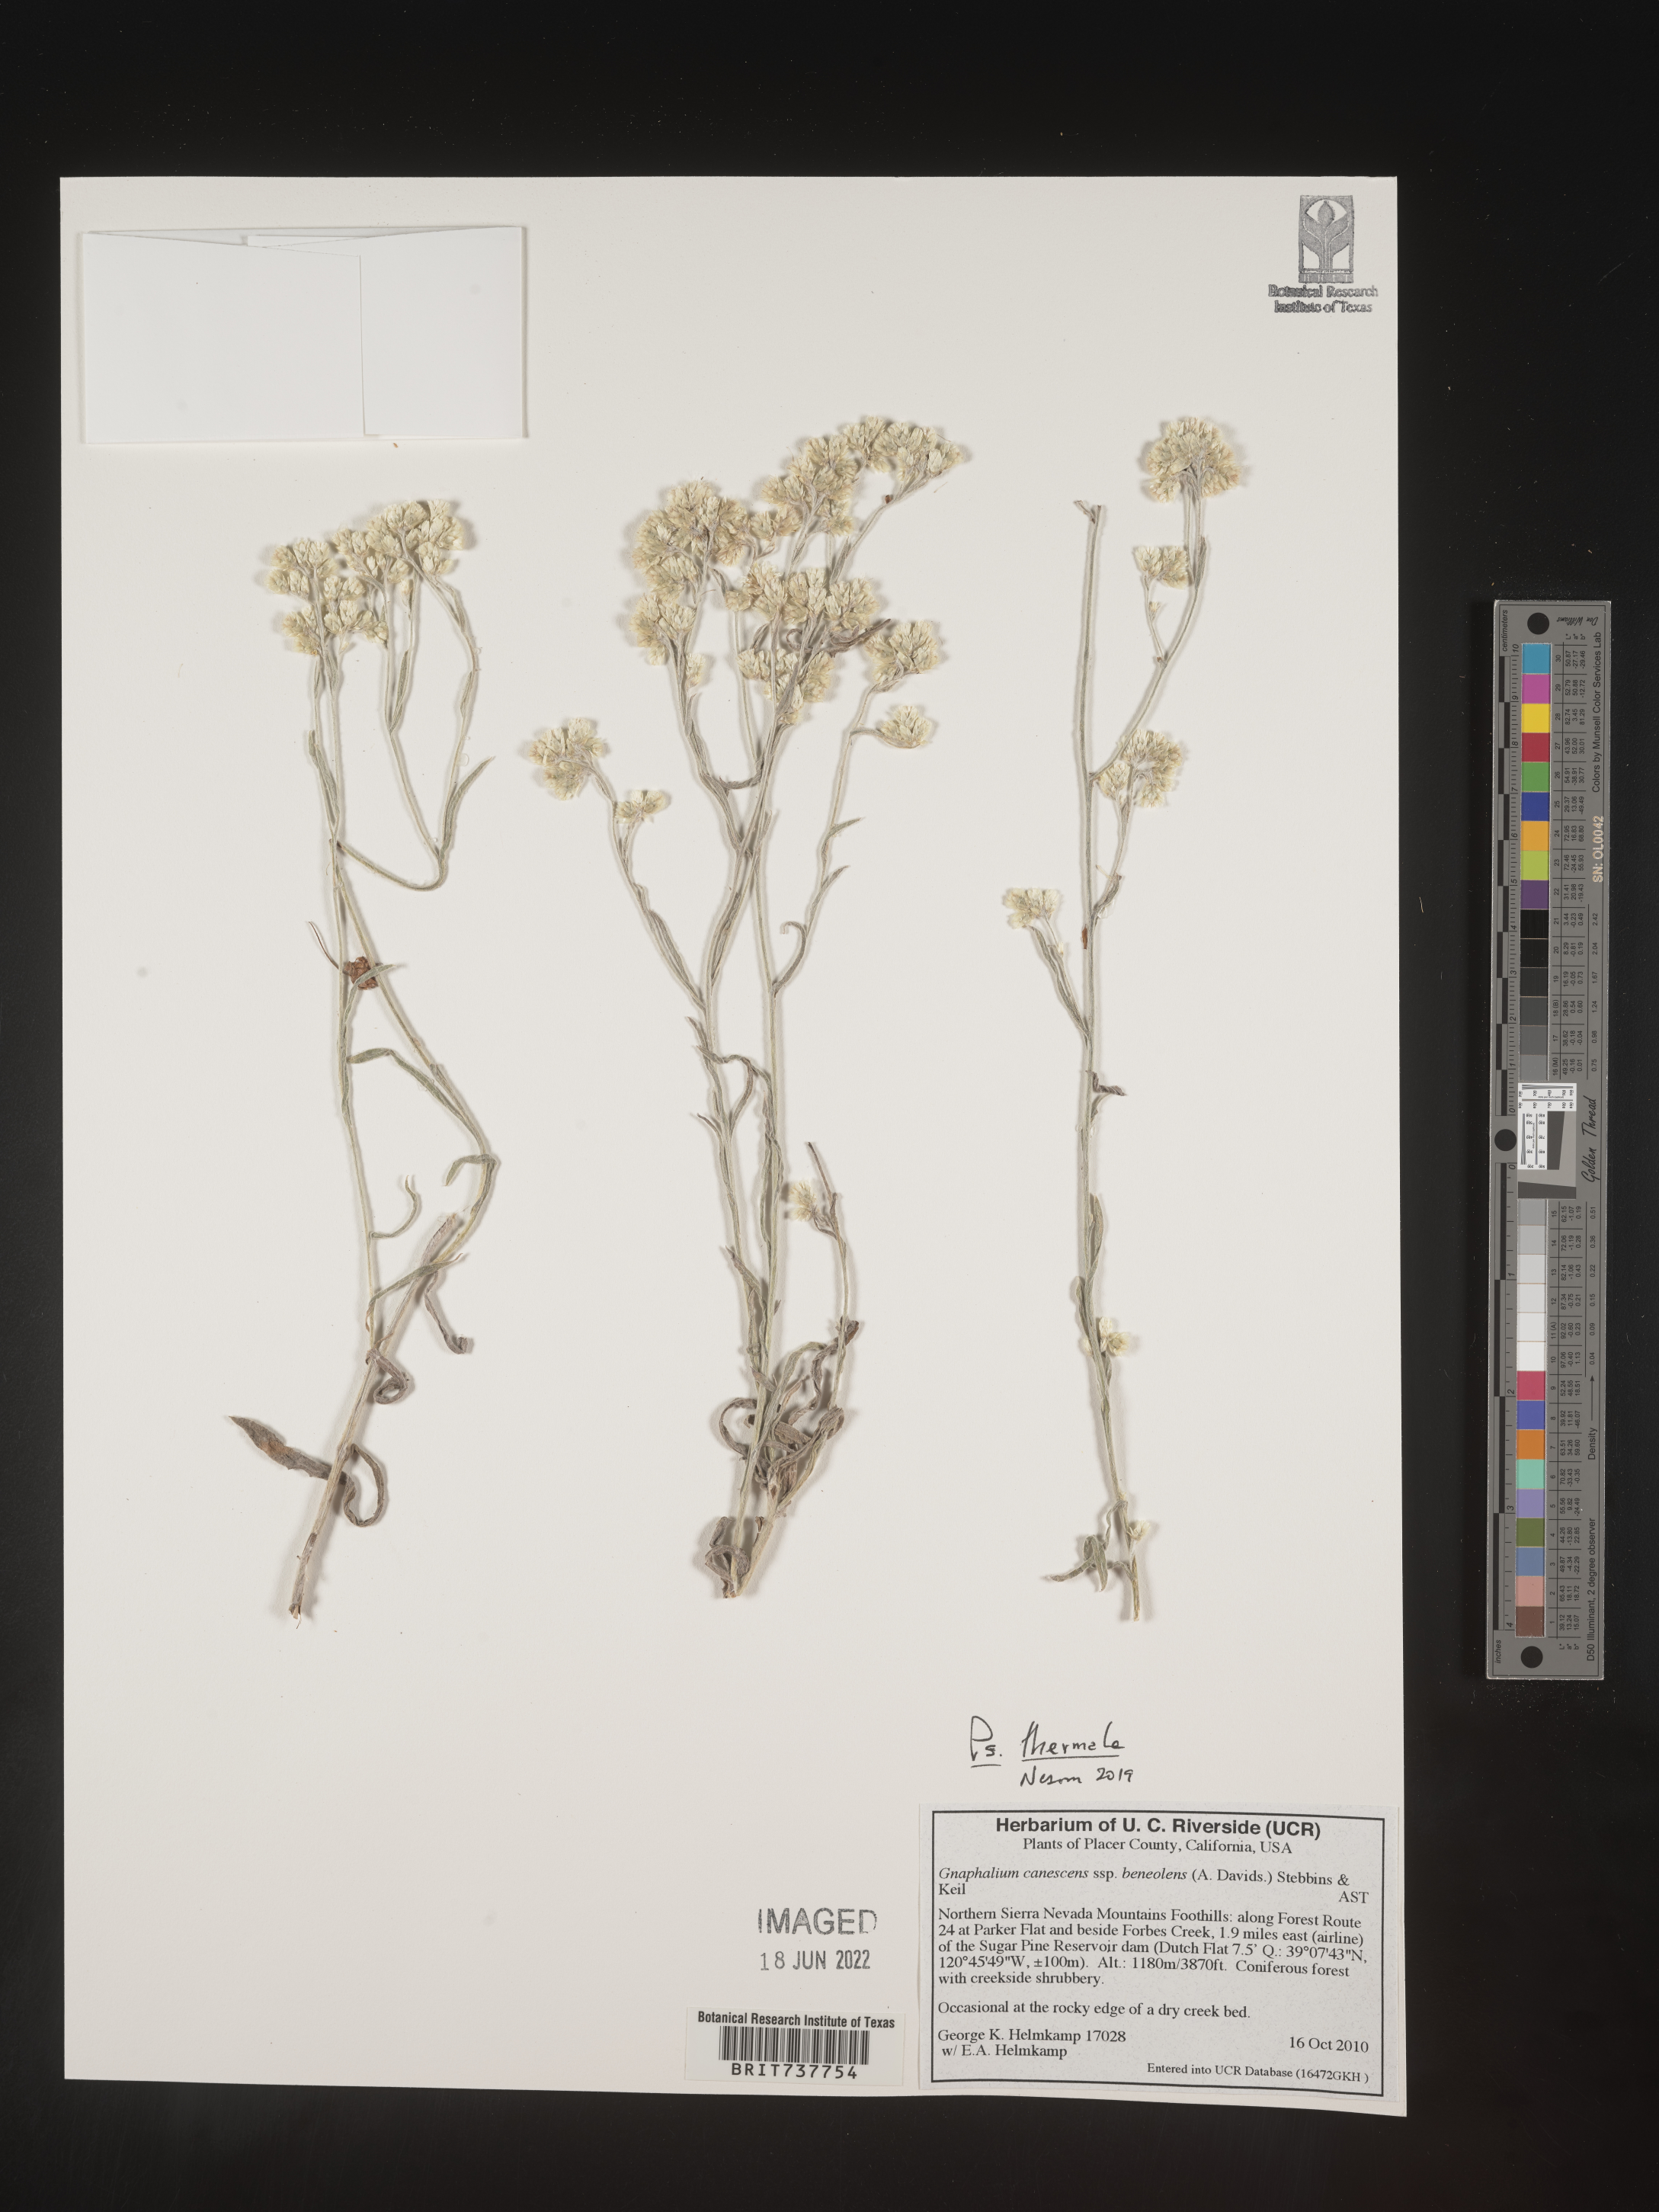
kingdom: Plantae
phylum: Tracheophyta
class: Magnoliopsida
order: Asterales
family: Asteraceae
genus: Pseudognaphalium
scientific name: Pseudognaphalium thermale
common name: Northwestern rabbit-tobacco
